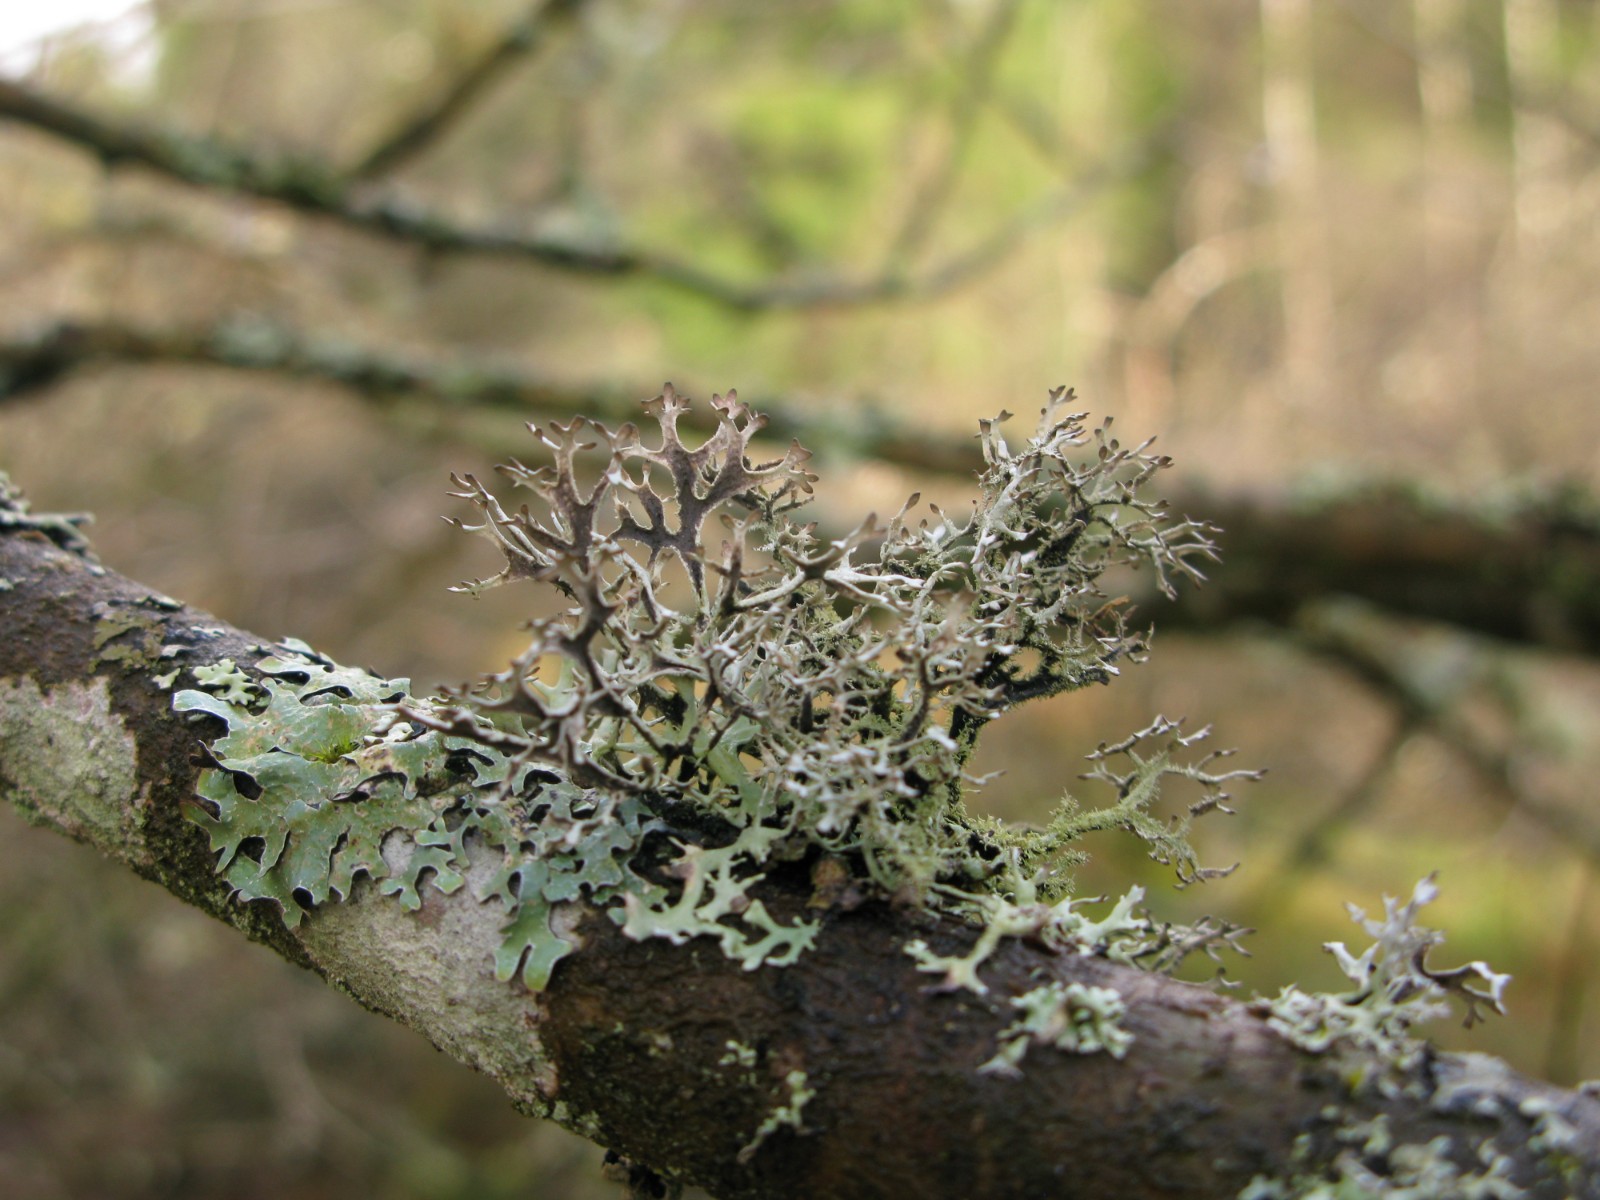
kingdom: Fungi
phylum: Ascomycota
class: Lecanoromycetes
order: Lecanorales
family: Parmeliaceae
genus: Pseudevernia
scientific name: Pseudevernia furfuracea
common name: grå fyrrelav
